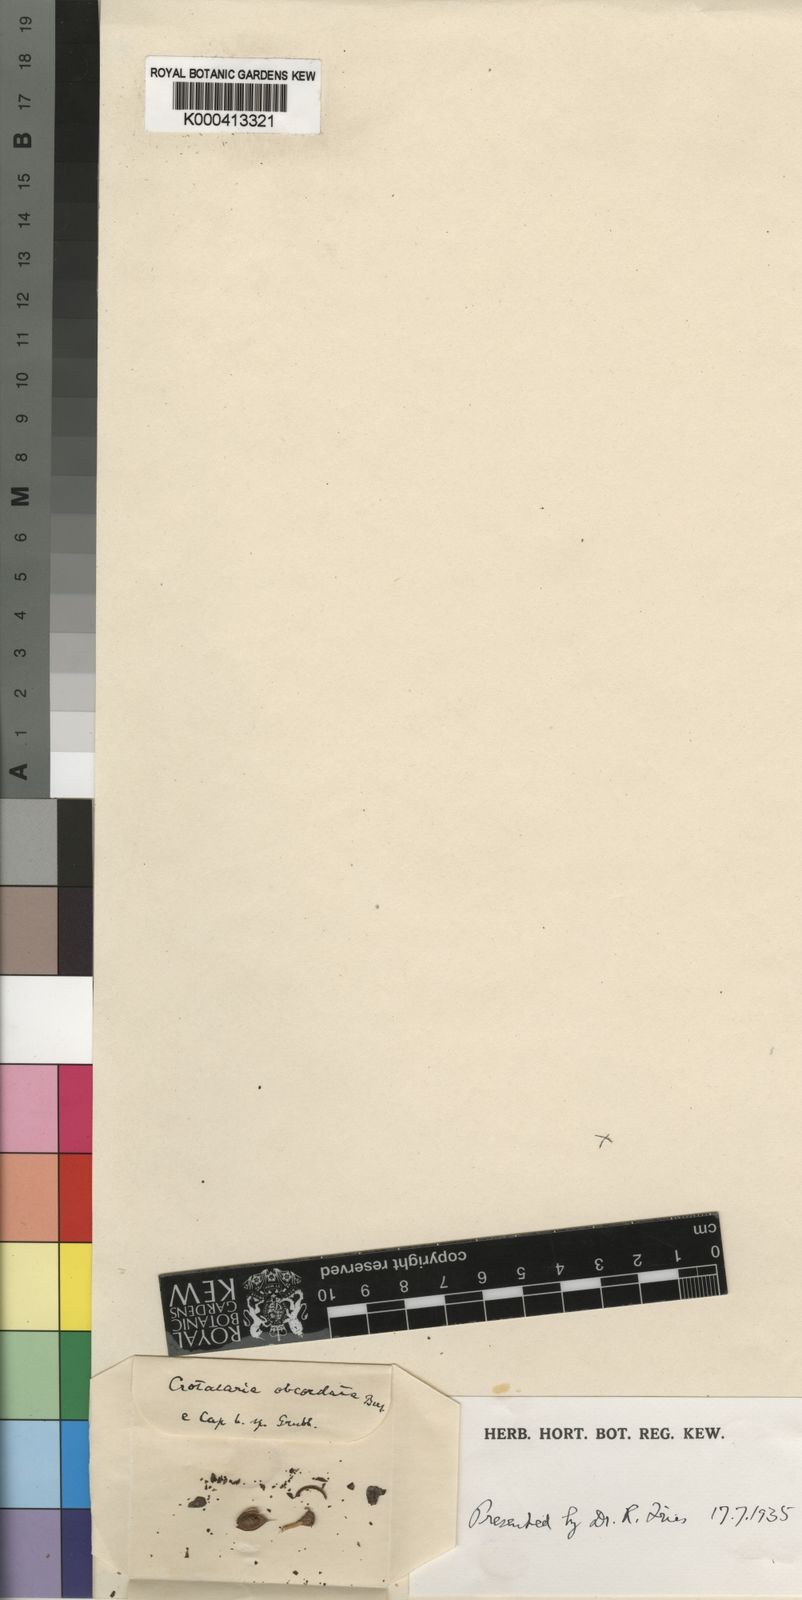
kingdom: Plantae
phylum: Tracheophyta
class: Magnoliopsida
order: Fabales
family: Fabaceae
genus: Wiborgia
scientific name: Wiborgia obcordata
